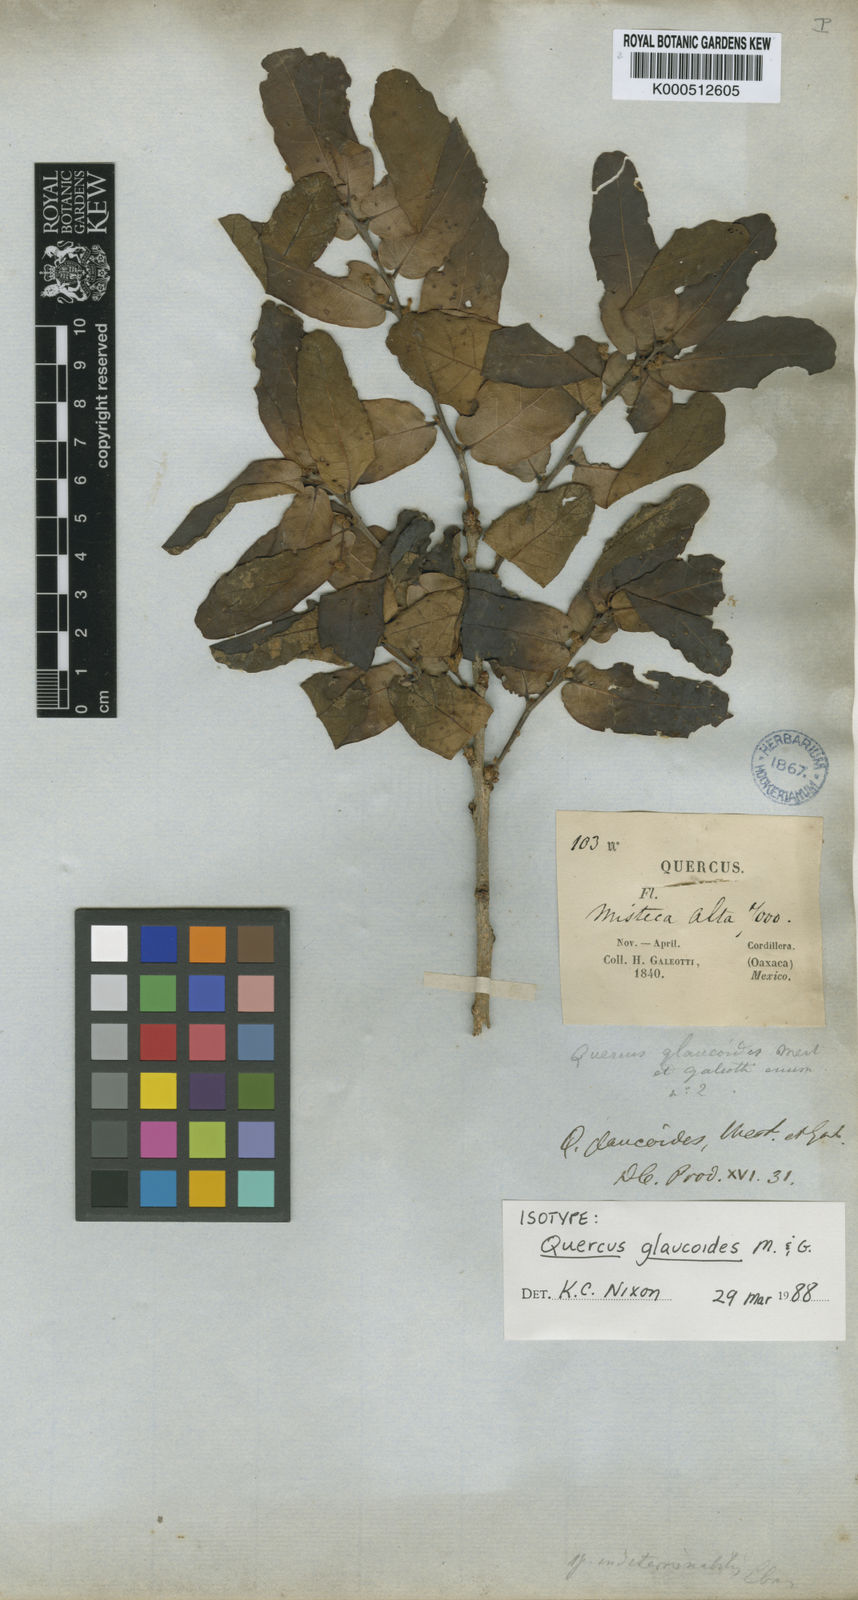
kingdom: Plantae
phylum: Tracheophyta
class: Magnoliopsida
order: Fagales
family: Fagaceae
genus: Quercus
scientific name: Quercus glaucoides
